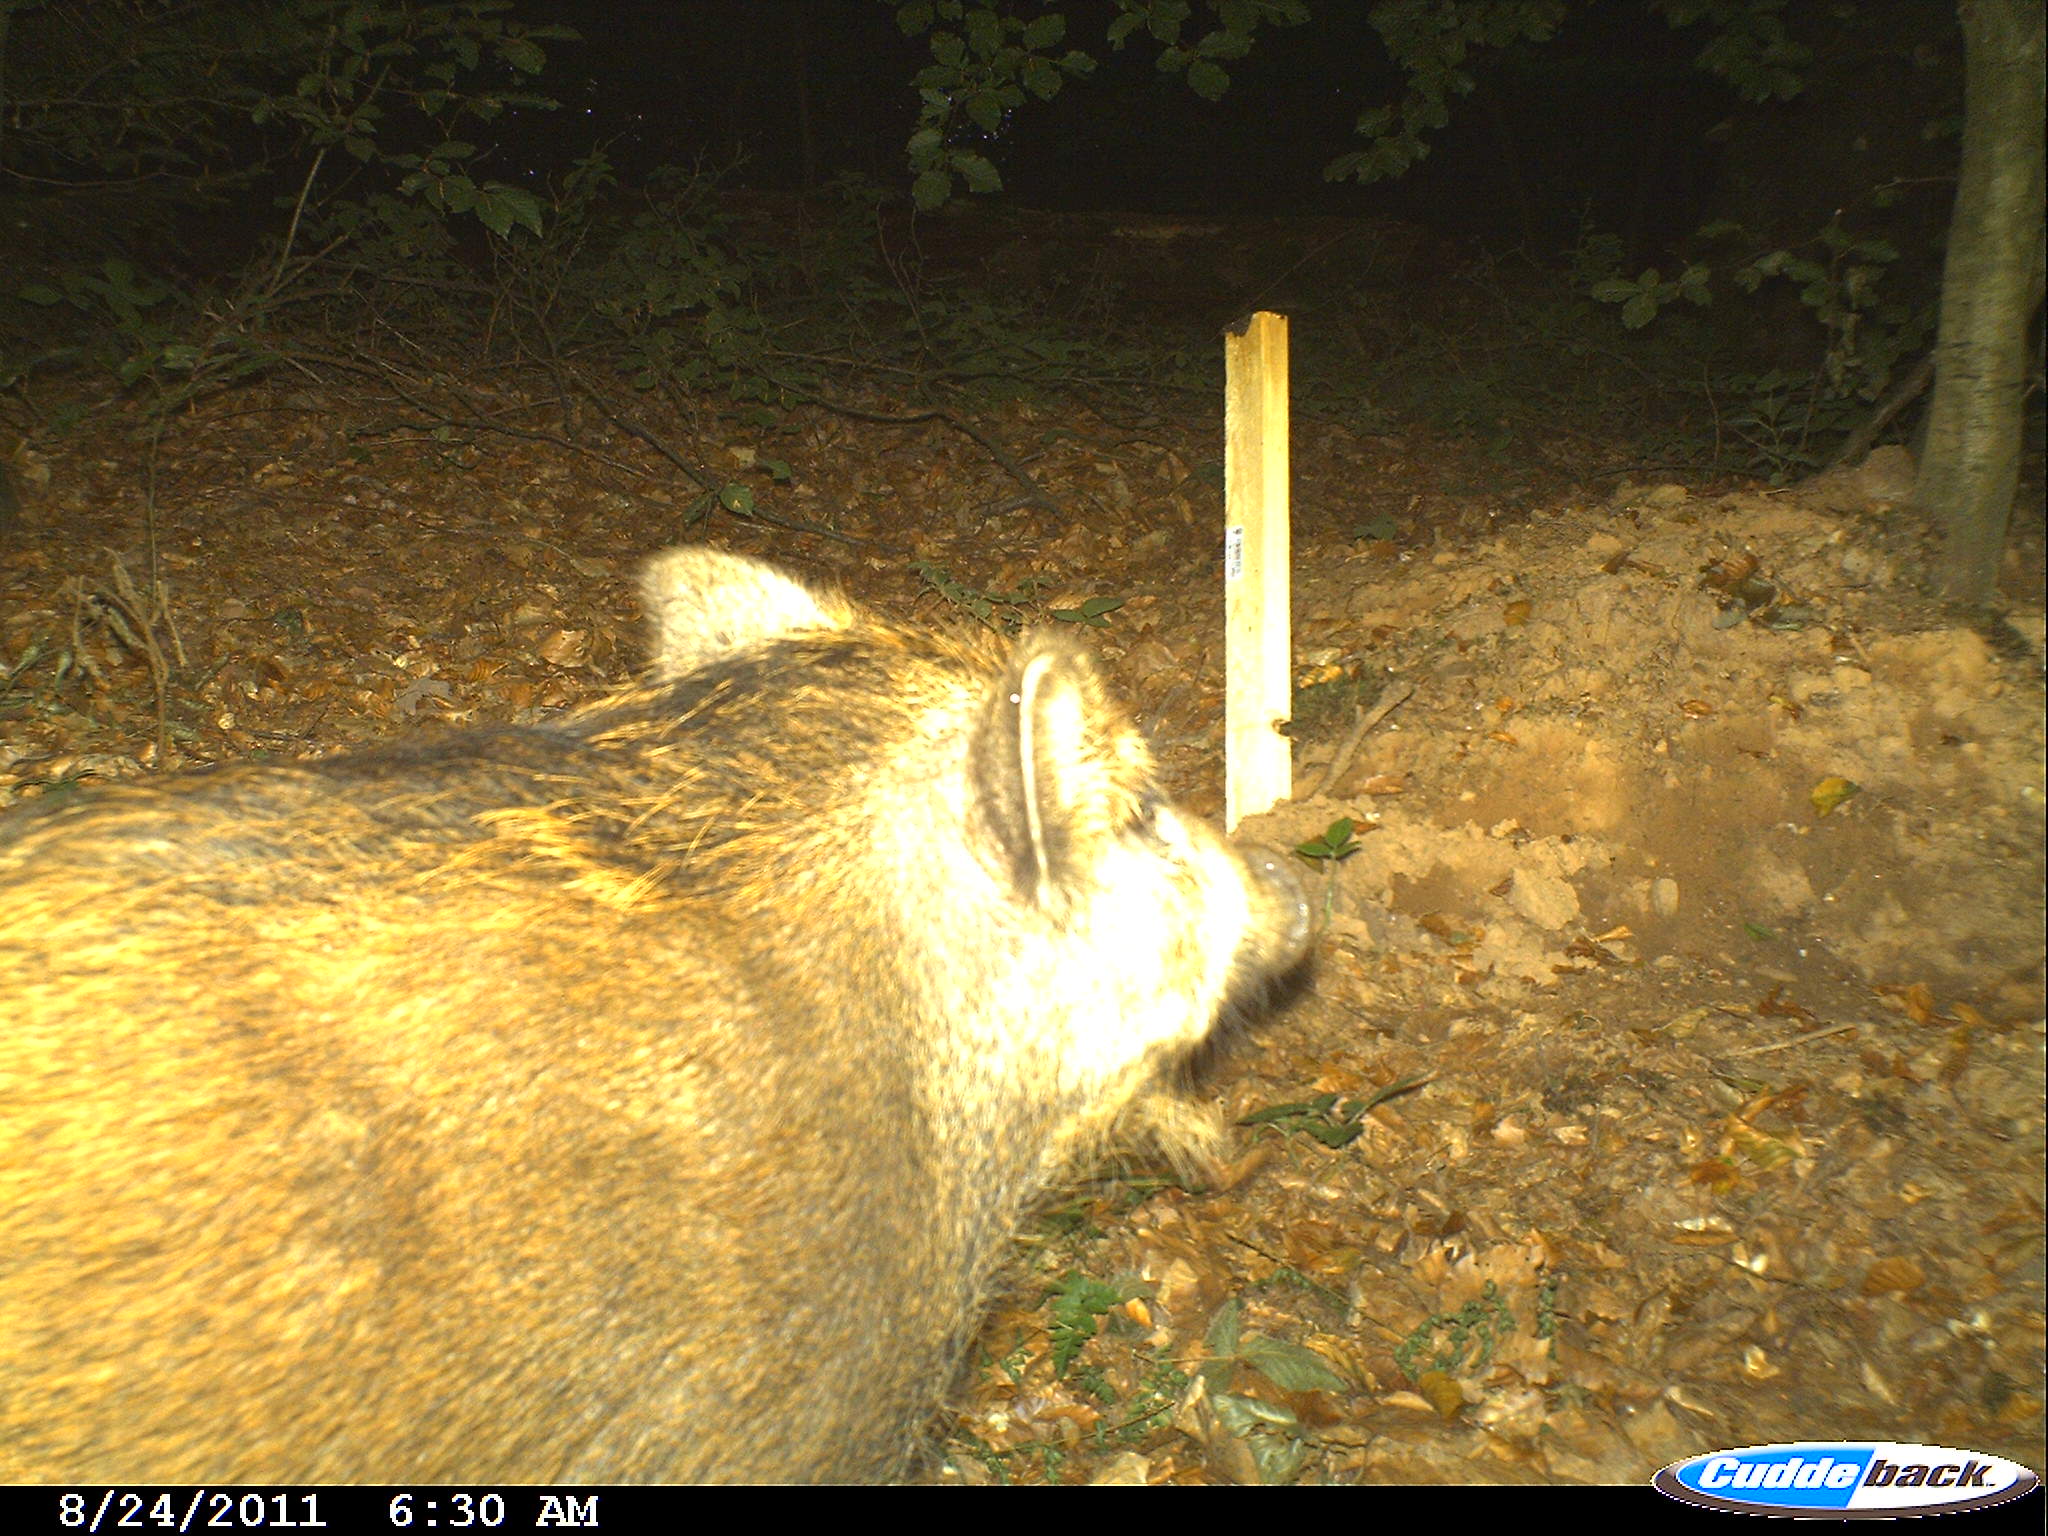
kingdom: Animalia
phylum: Chordata
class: Mammalia
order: Artiodactyla
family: Suidae
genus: Sus
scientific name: Sus scrofa
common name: Wild boar
